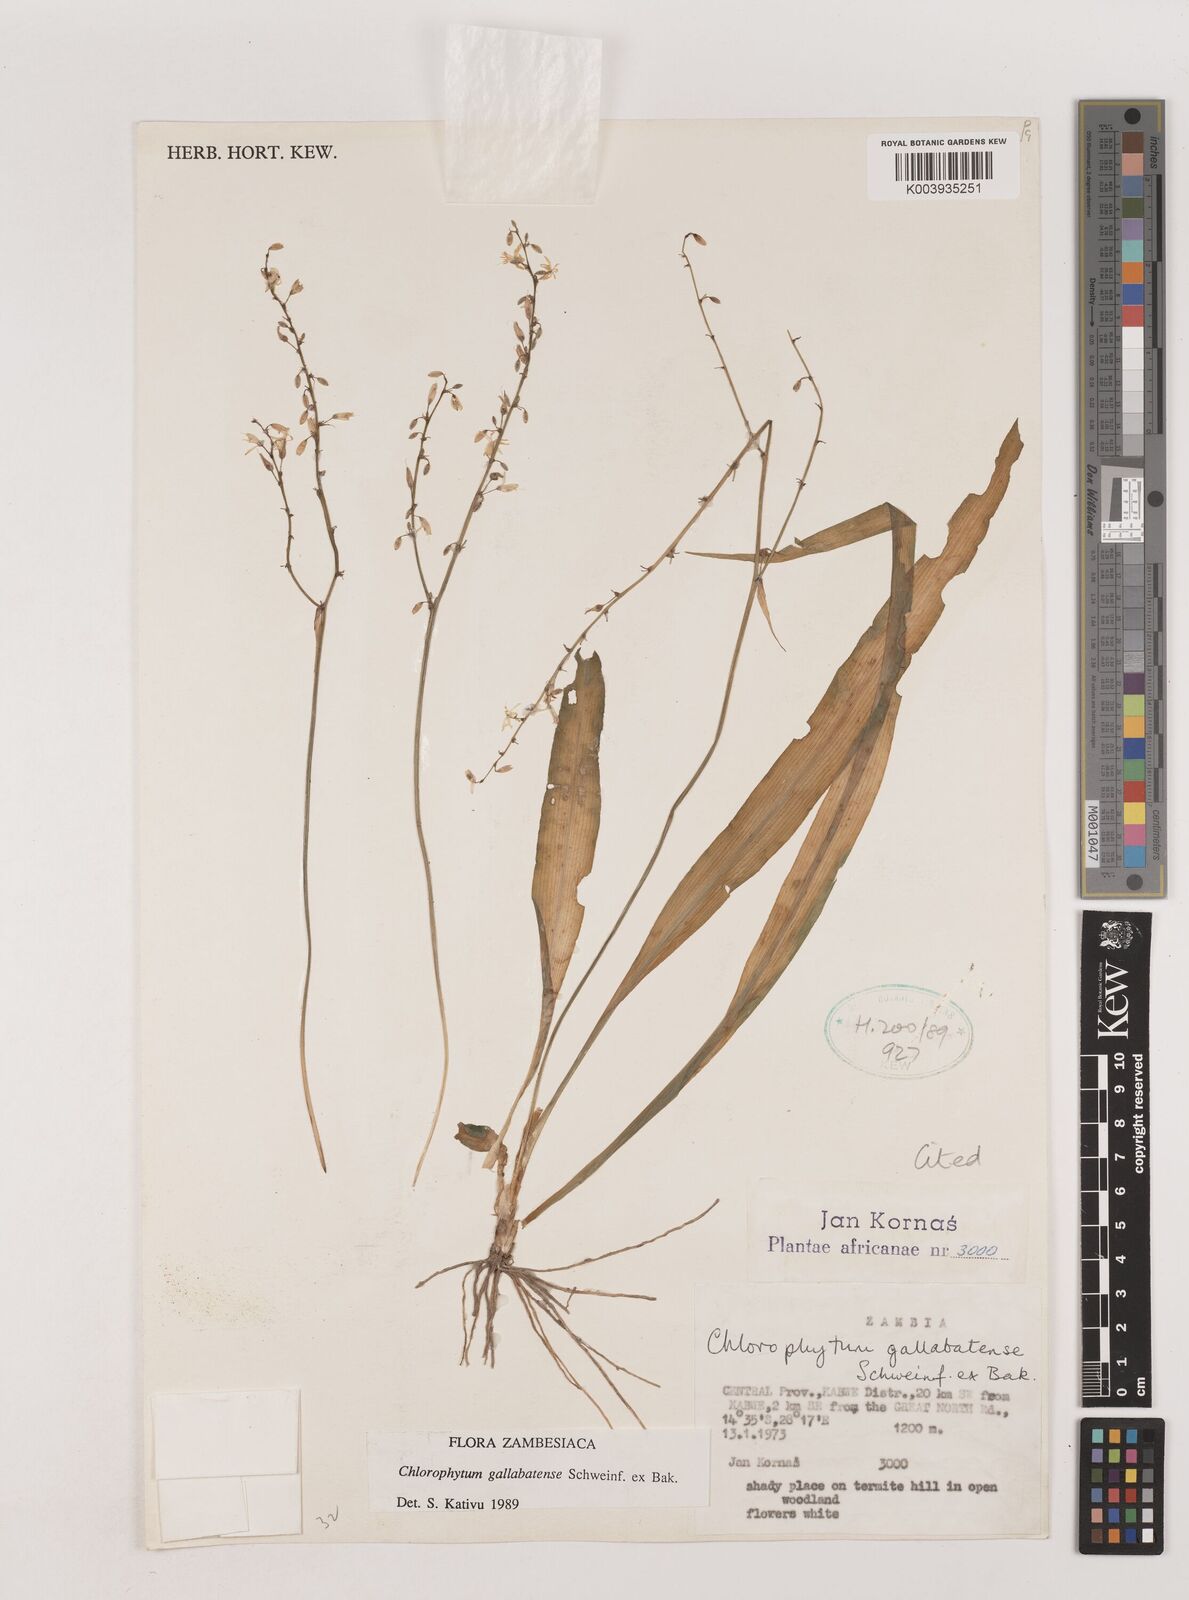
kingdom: Plantae
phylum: Tracheophyta
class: Liliopsida
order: Asparagales
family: Asparagaceae
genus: Chlorophytum
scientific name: Chlorophytum gallabatense
